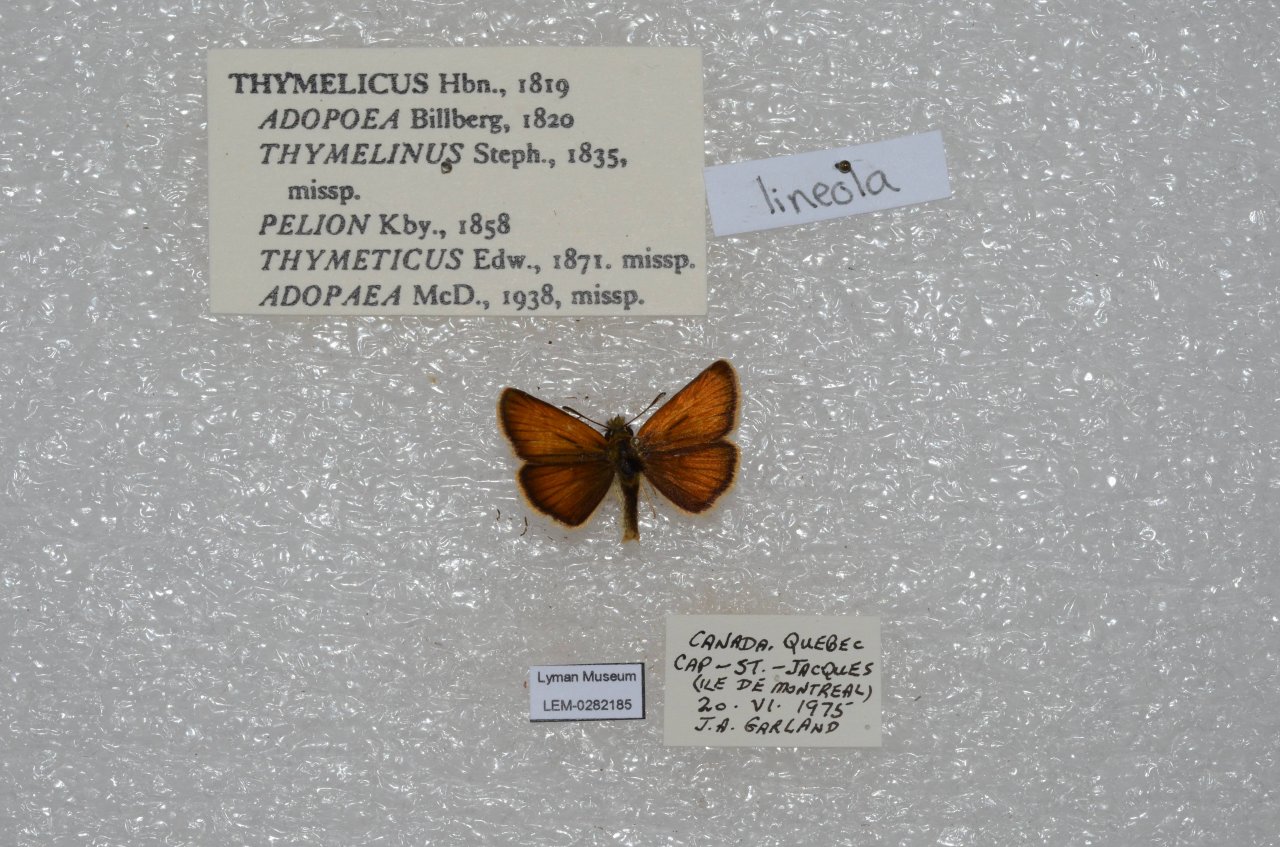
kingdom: Animalia
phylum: Arthropoda
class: Insecta
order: Lepidoptera
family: Hesperiidae
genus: Thymelicus
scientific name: Thymelicus lineola
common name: European Skipper
